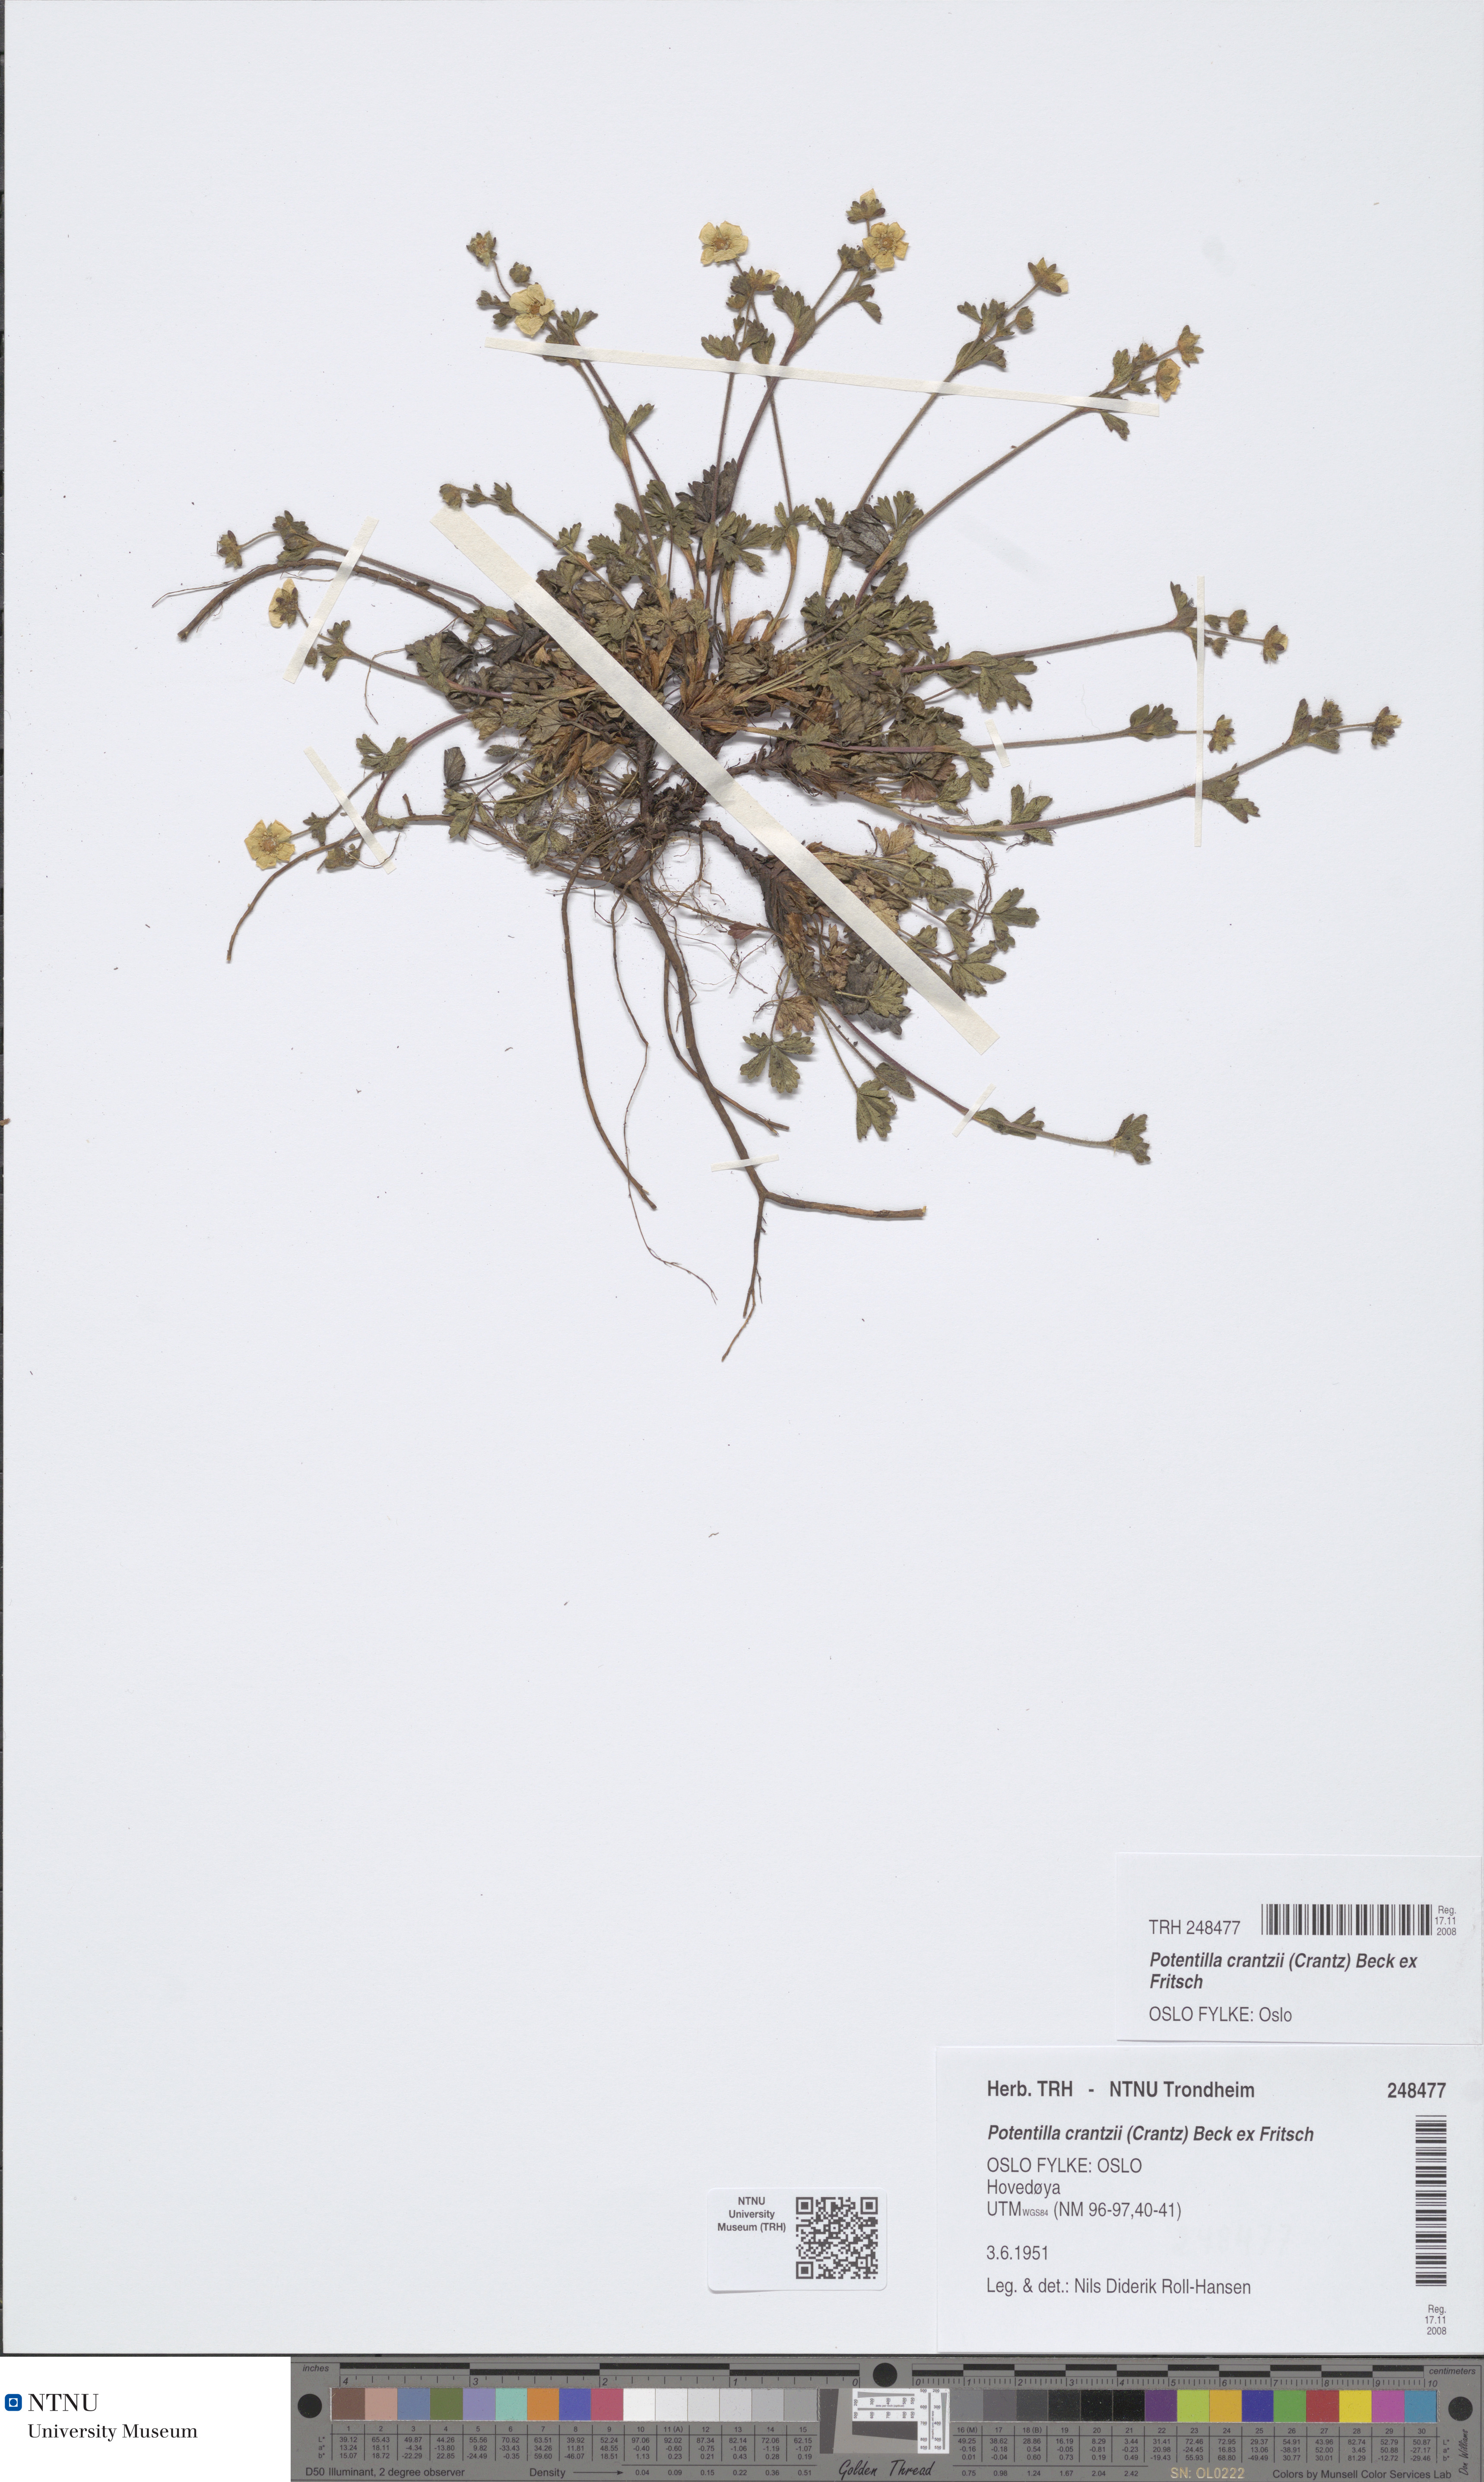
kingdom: Plantae
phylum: Tracheophyta
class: Magnoliopsida
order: Rosales
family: Rosaceae
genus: Potentilla
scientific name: Potentilla crantzii
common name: Alpine cinquefoil
